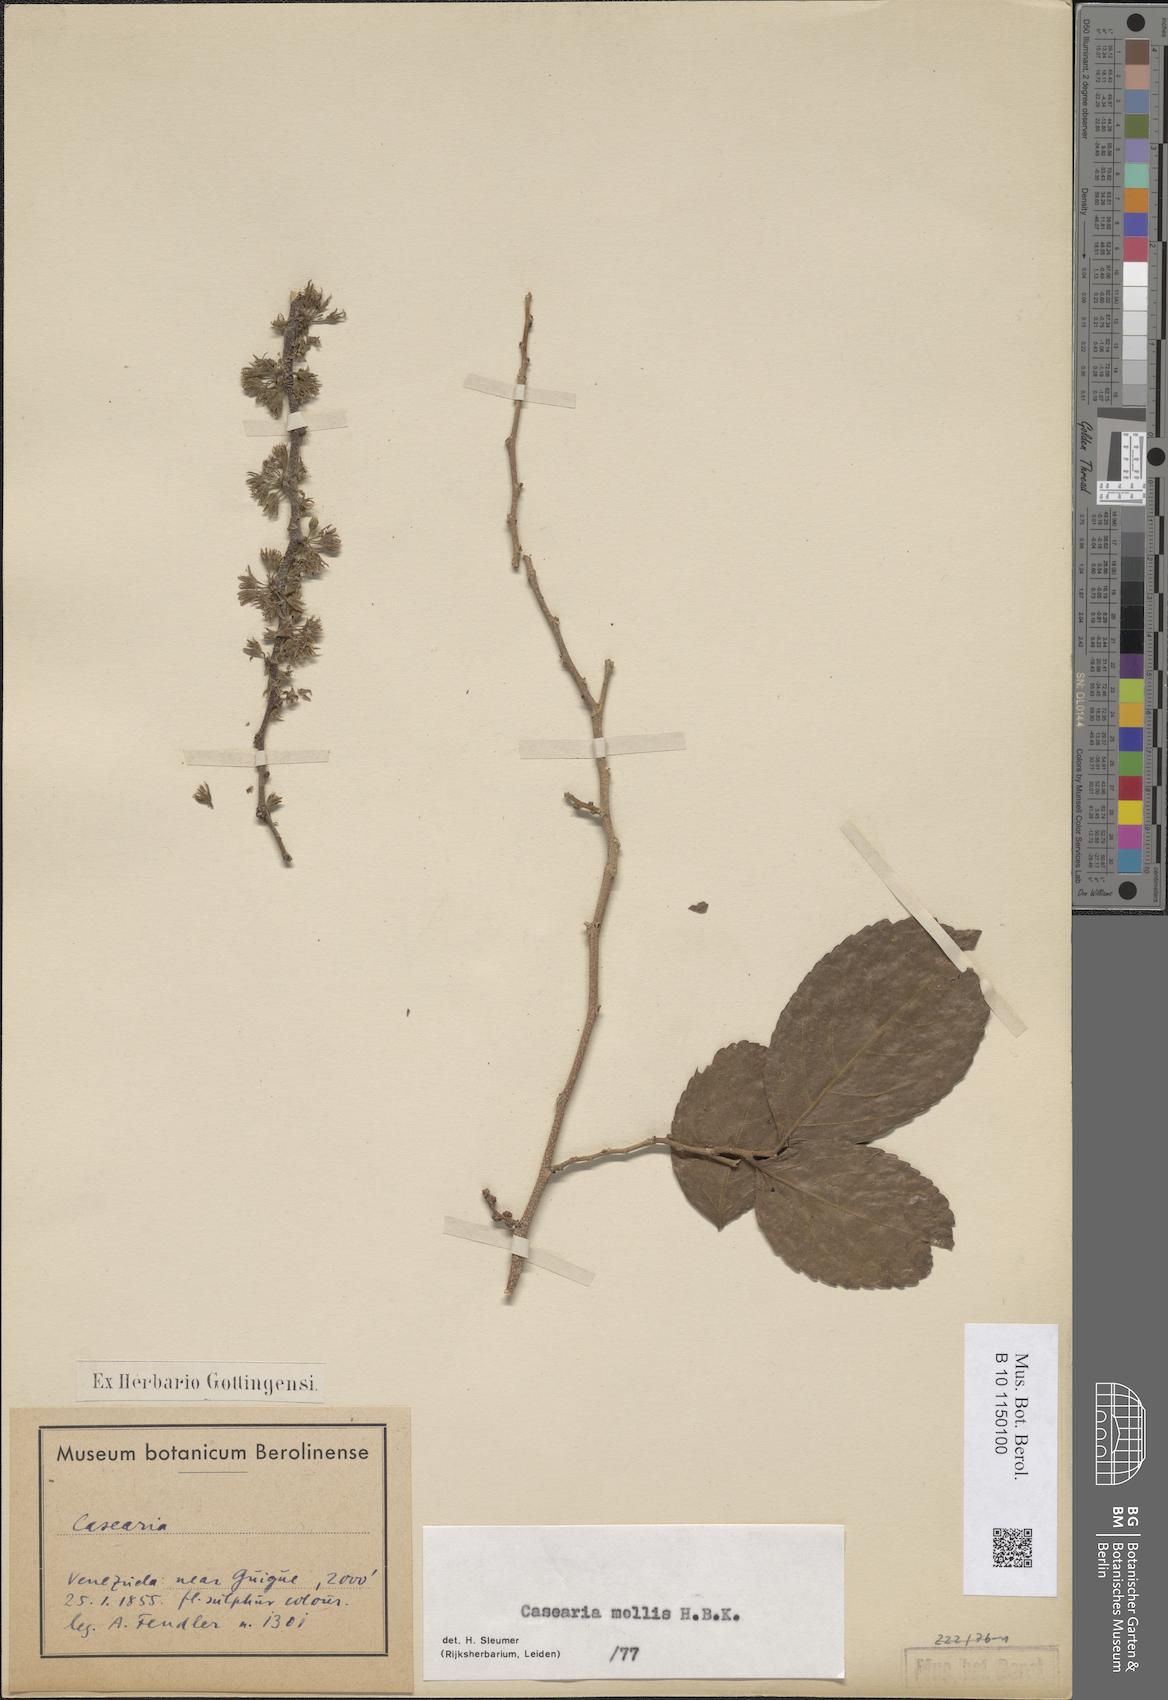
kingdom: Plantae
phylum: Tracheophyta
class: Magnoliopsida
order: Malpighiales
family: Salicaceae
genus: Casearia
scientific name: Casearia mollis
